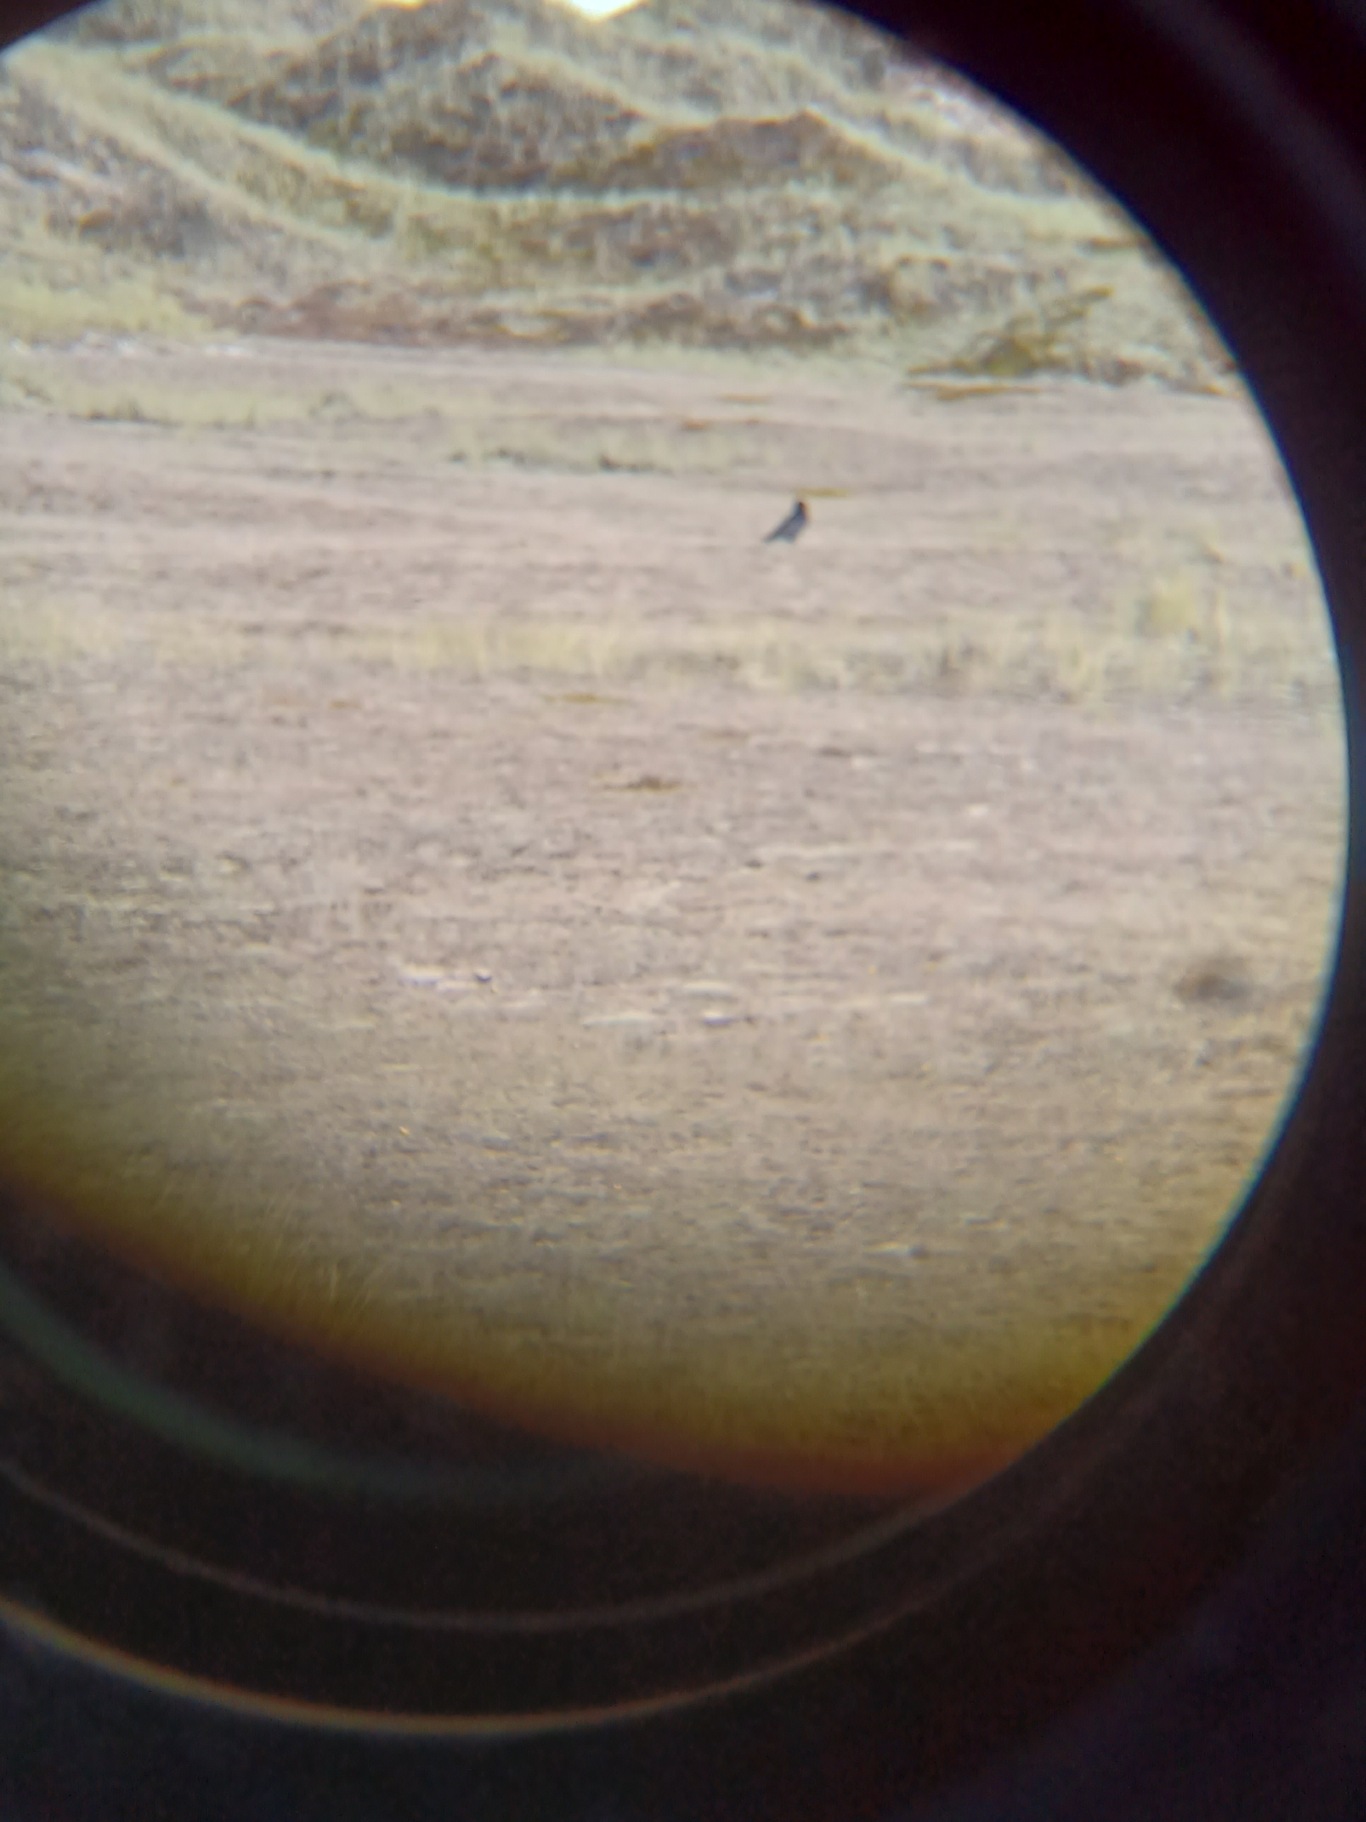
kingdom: Animalia
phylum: Chordata
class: Aves
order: Passeriformes
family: Corvidae
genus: Corvus
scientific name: Corvus corax
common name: Ravn
